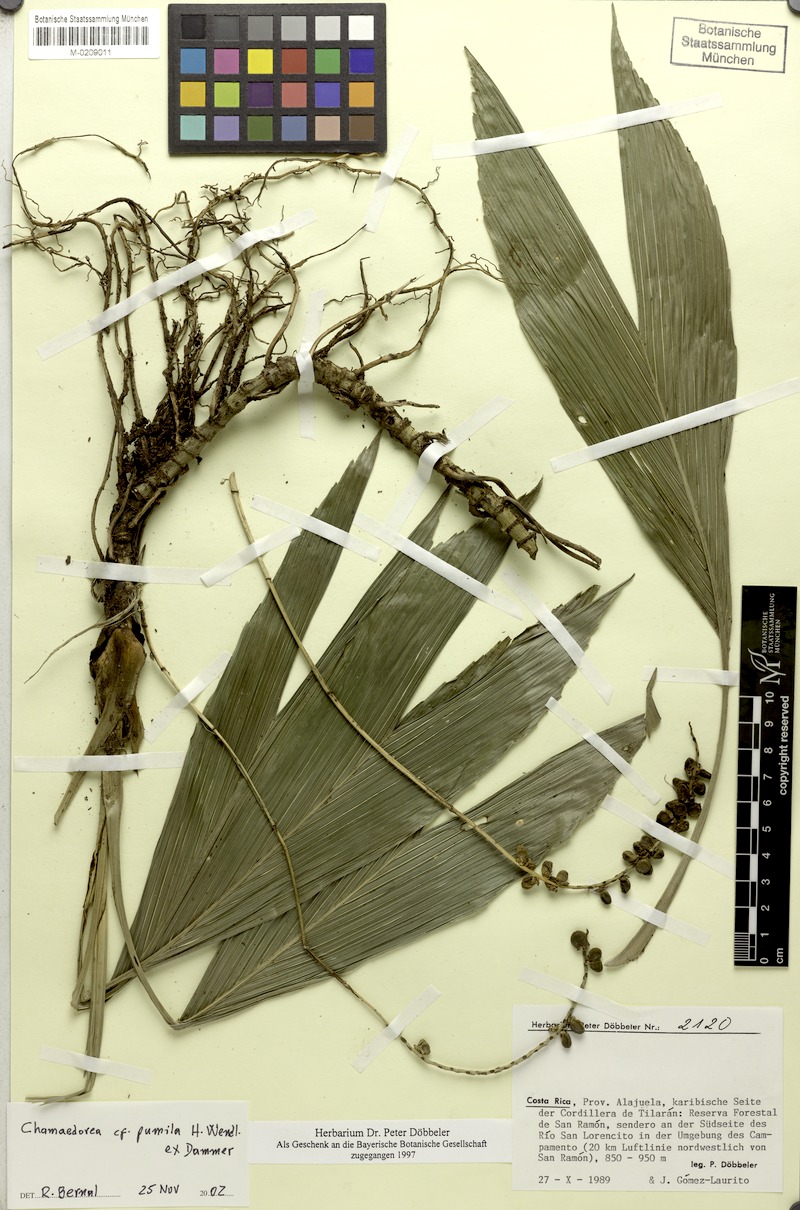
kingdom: Plantae
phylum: Tracheophyta
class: Liliopsida
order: Arecales
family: Arecaceae
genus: Chamaedorea
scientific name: Chamaedorea pumila
